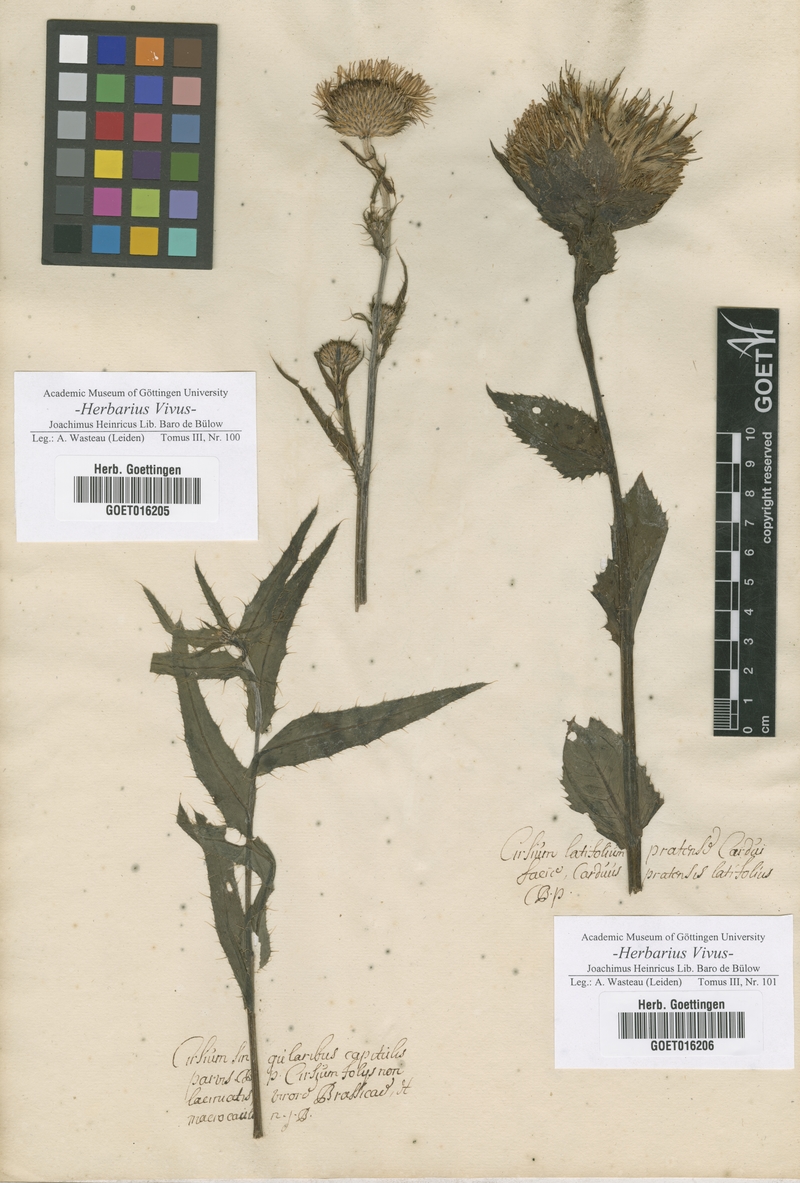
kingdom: Plantae
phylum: Tracheophyta
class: Magnoliopsida
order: Asterales
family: Asteraceae
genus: Cirsium
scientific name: Cirsium serratuloides
